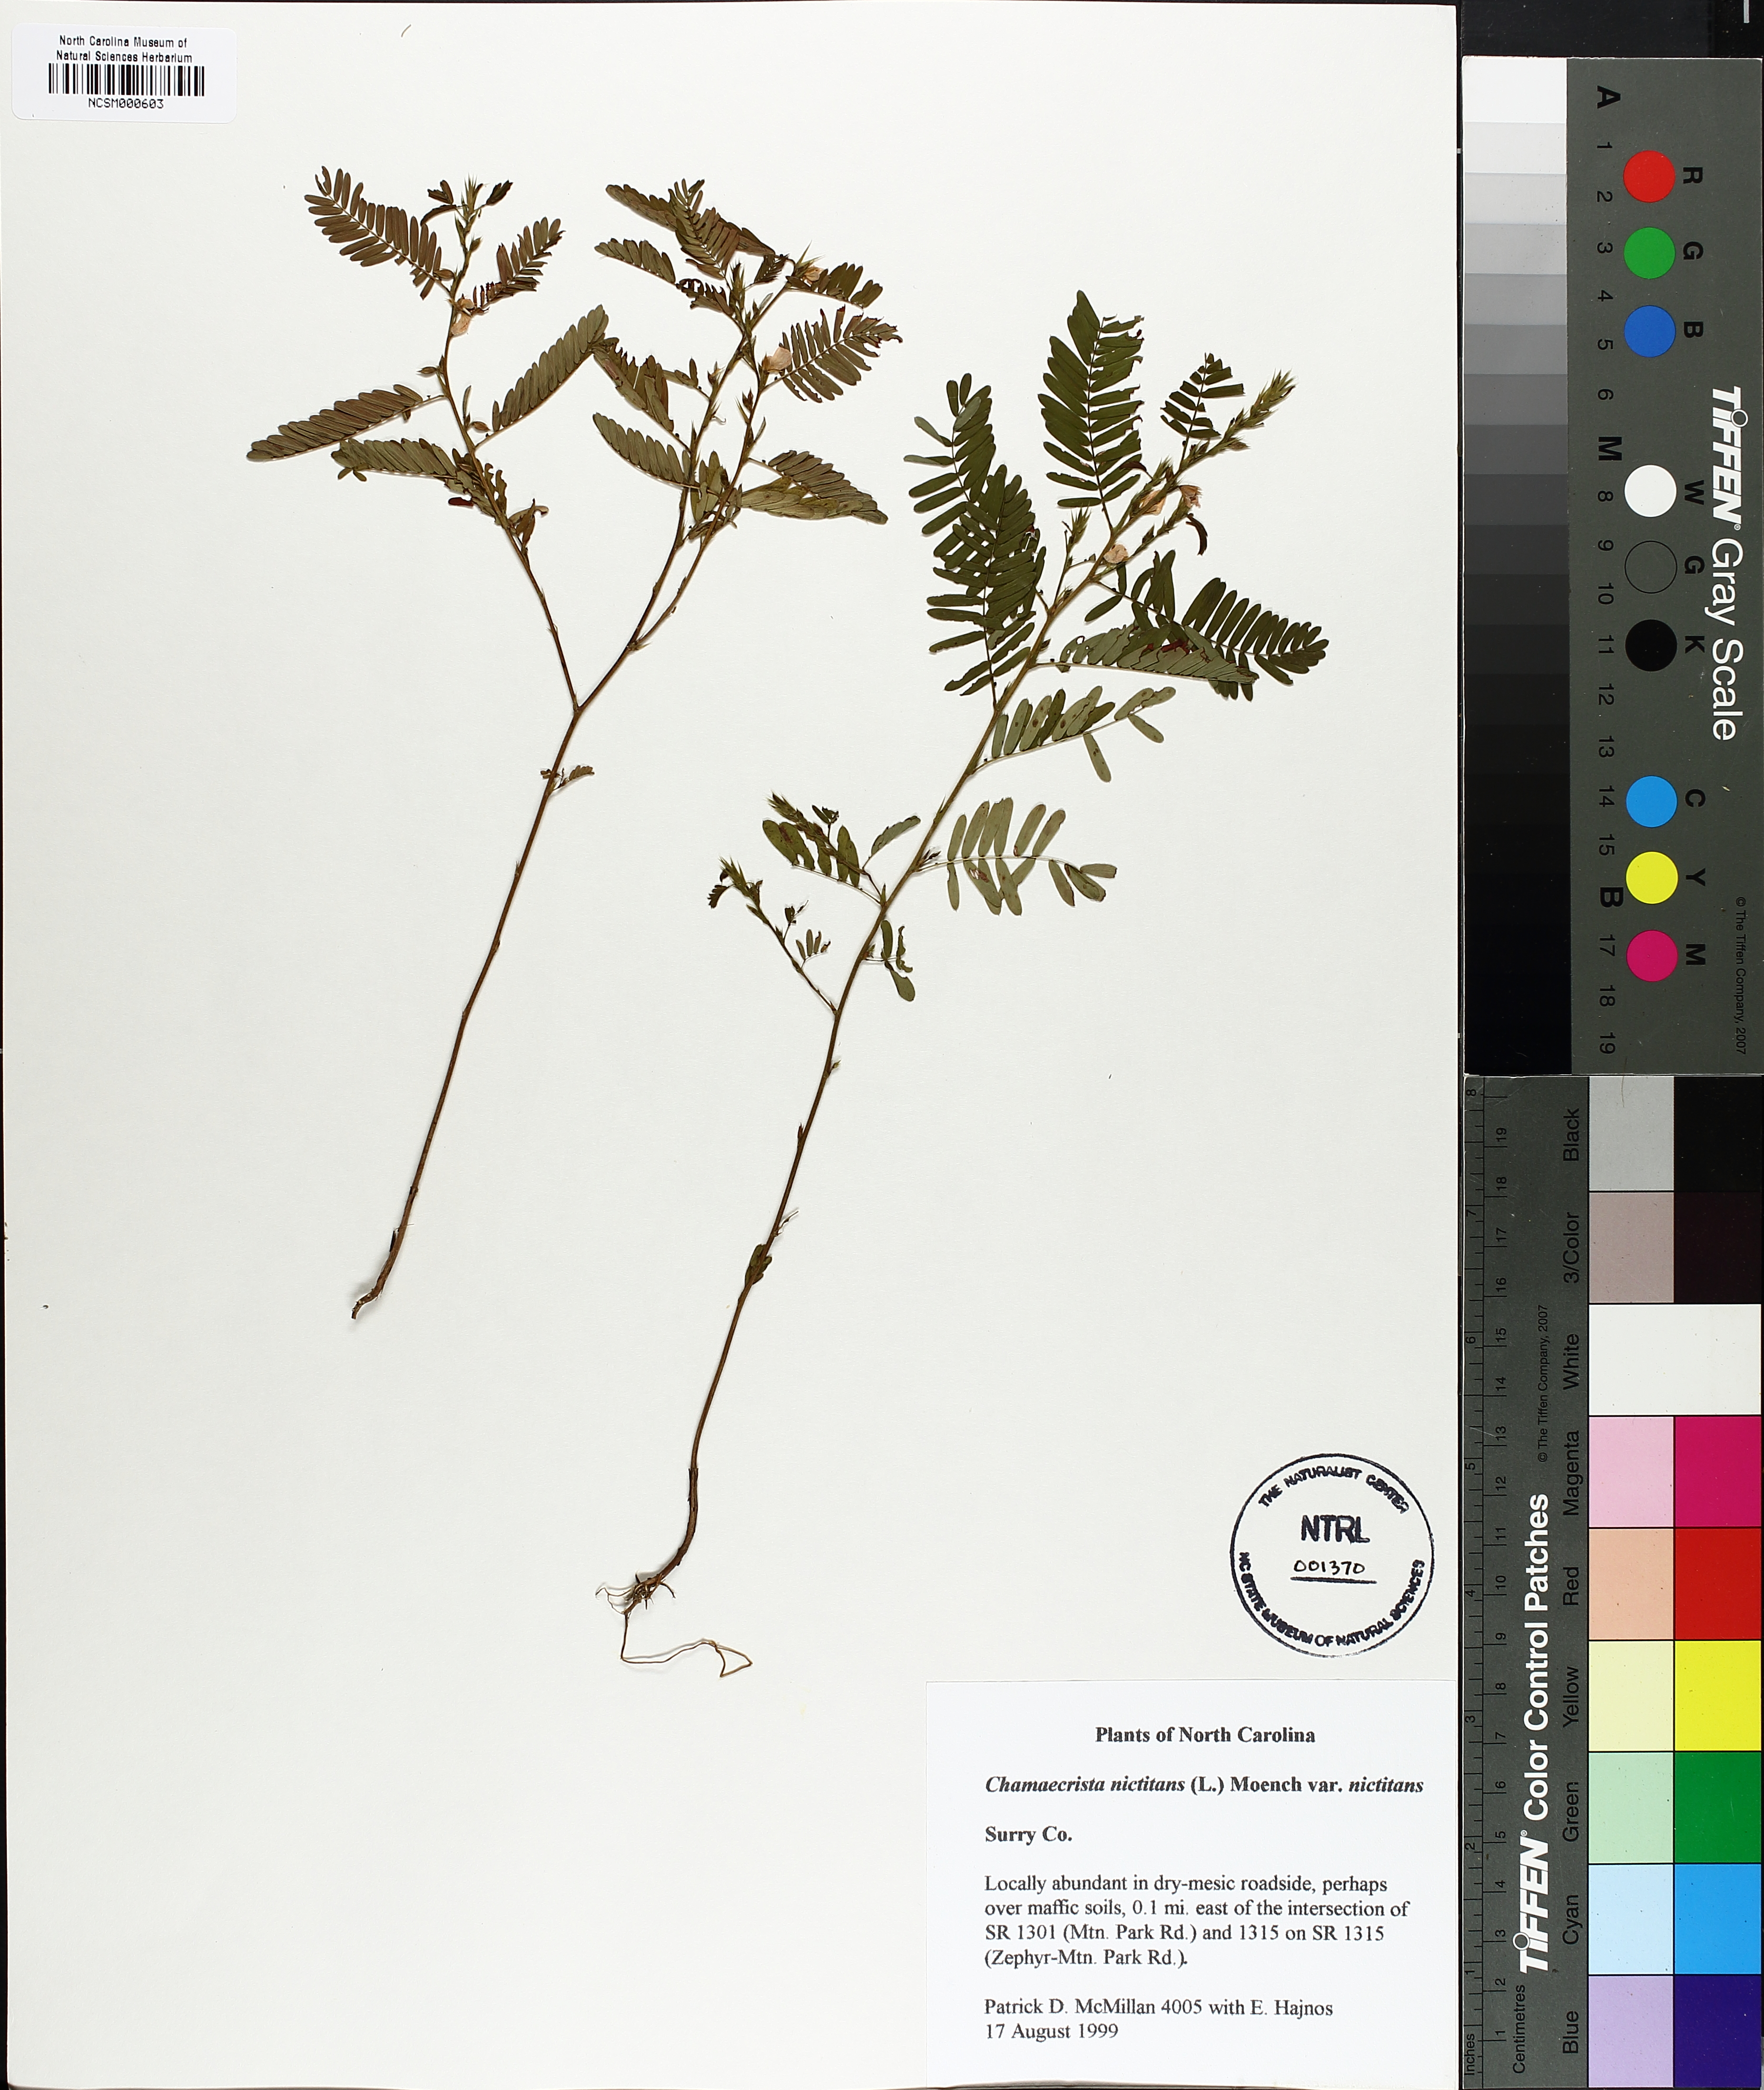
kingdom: Plantae
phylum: Tracheophyta
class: Magnoliopsida
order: Fabales
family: Fabaceae
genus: Chamaecrista
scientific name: Chamaecrista nictitans
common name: Sensitive cassia
